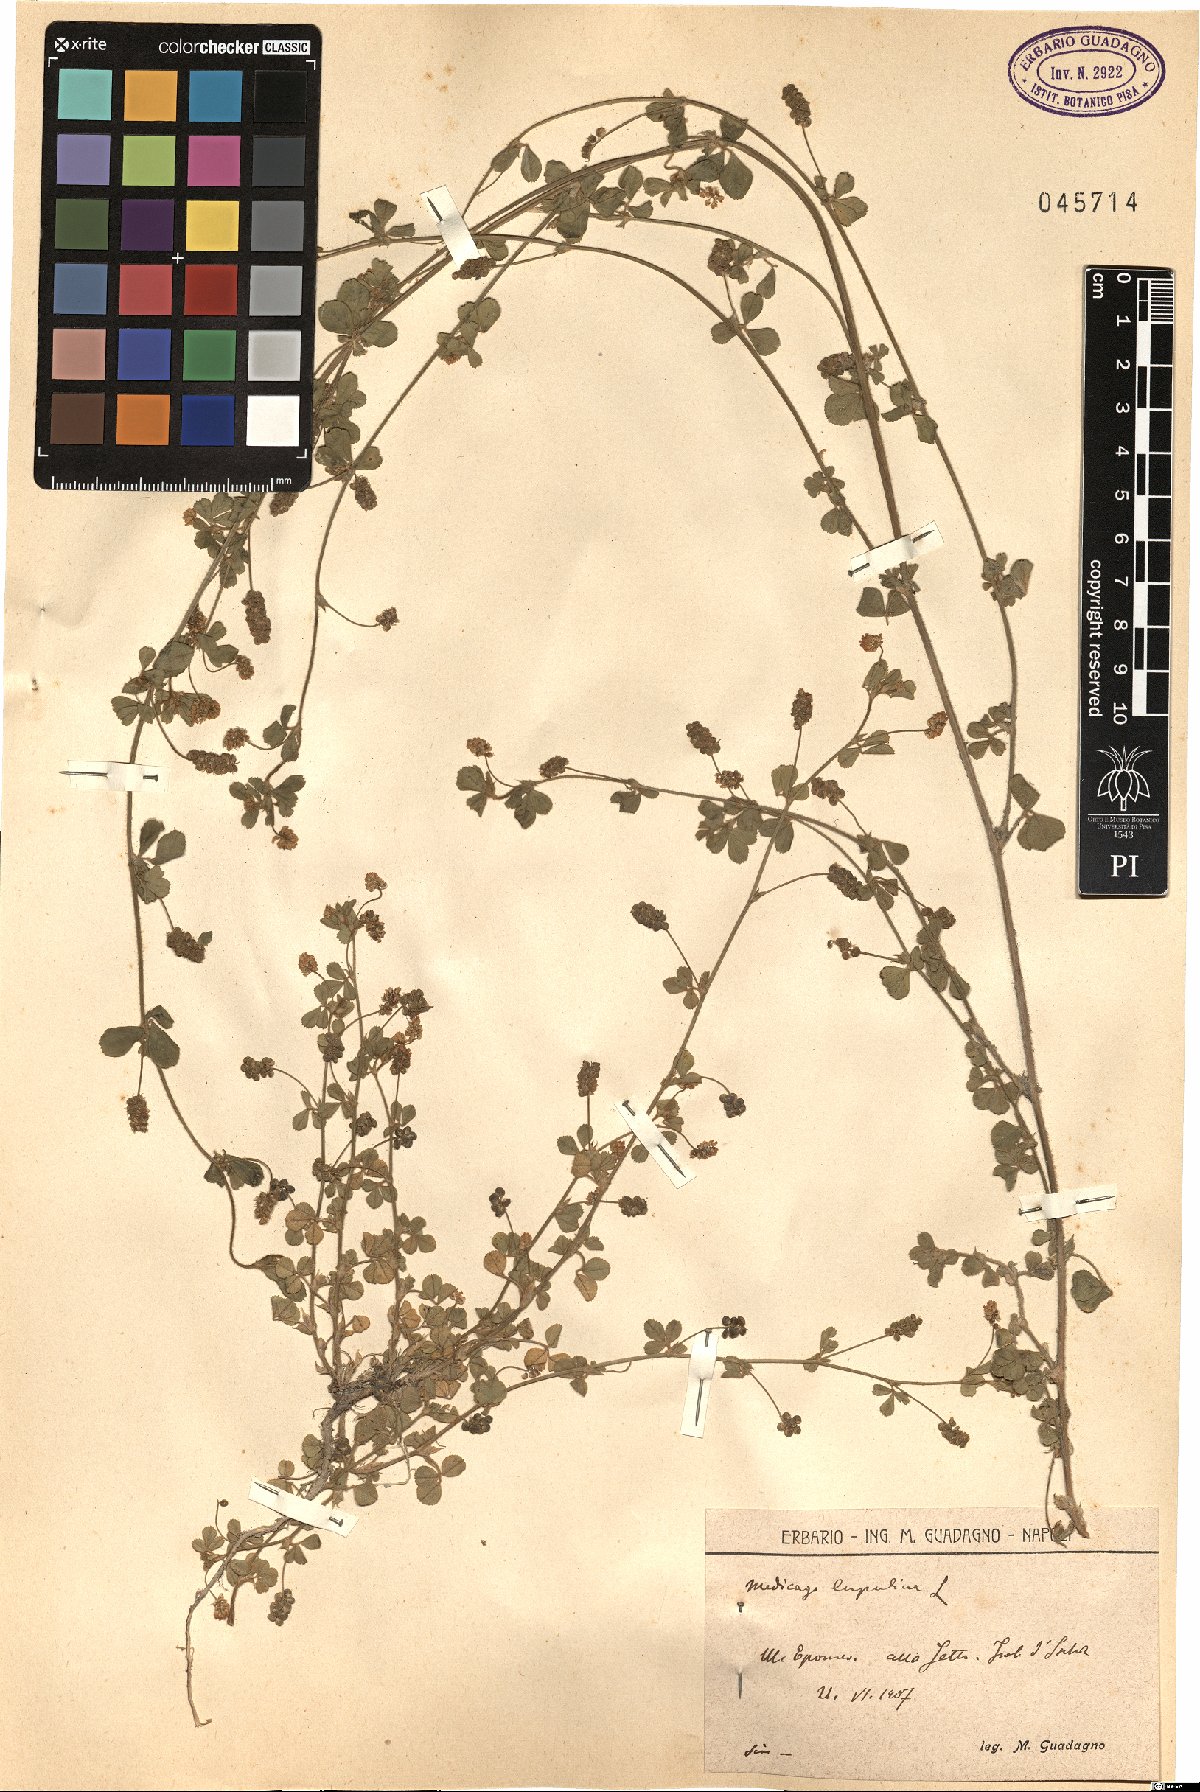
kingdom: Plantae
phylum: Tracheophyta
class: Magnoliopsida
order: Fabales
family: Fabaceae
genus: Medicago
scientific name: Medicago lupulina
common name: Black medick
